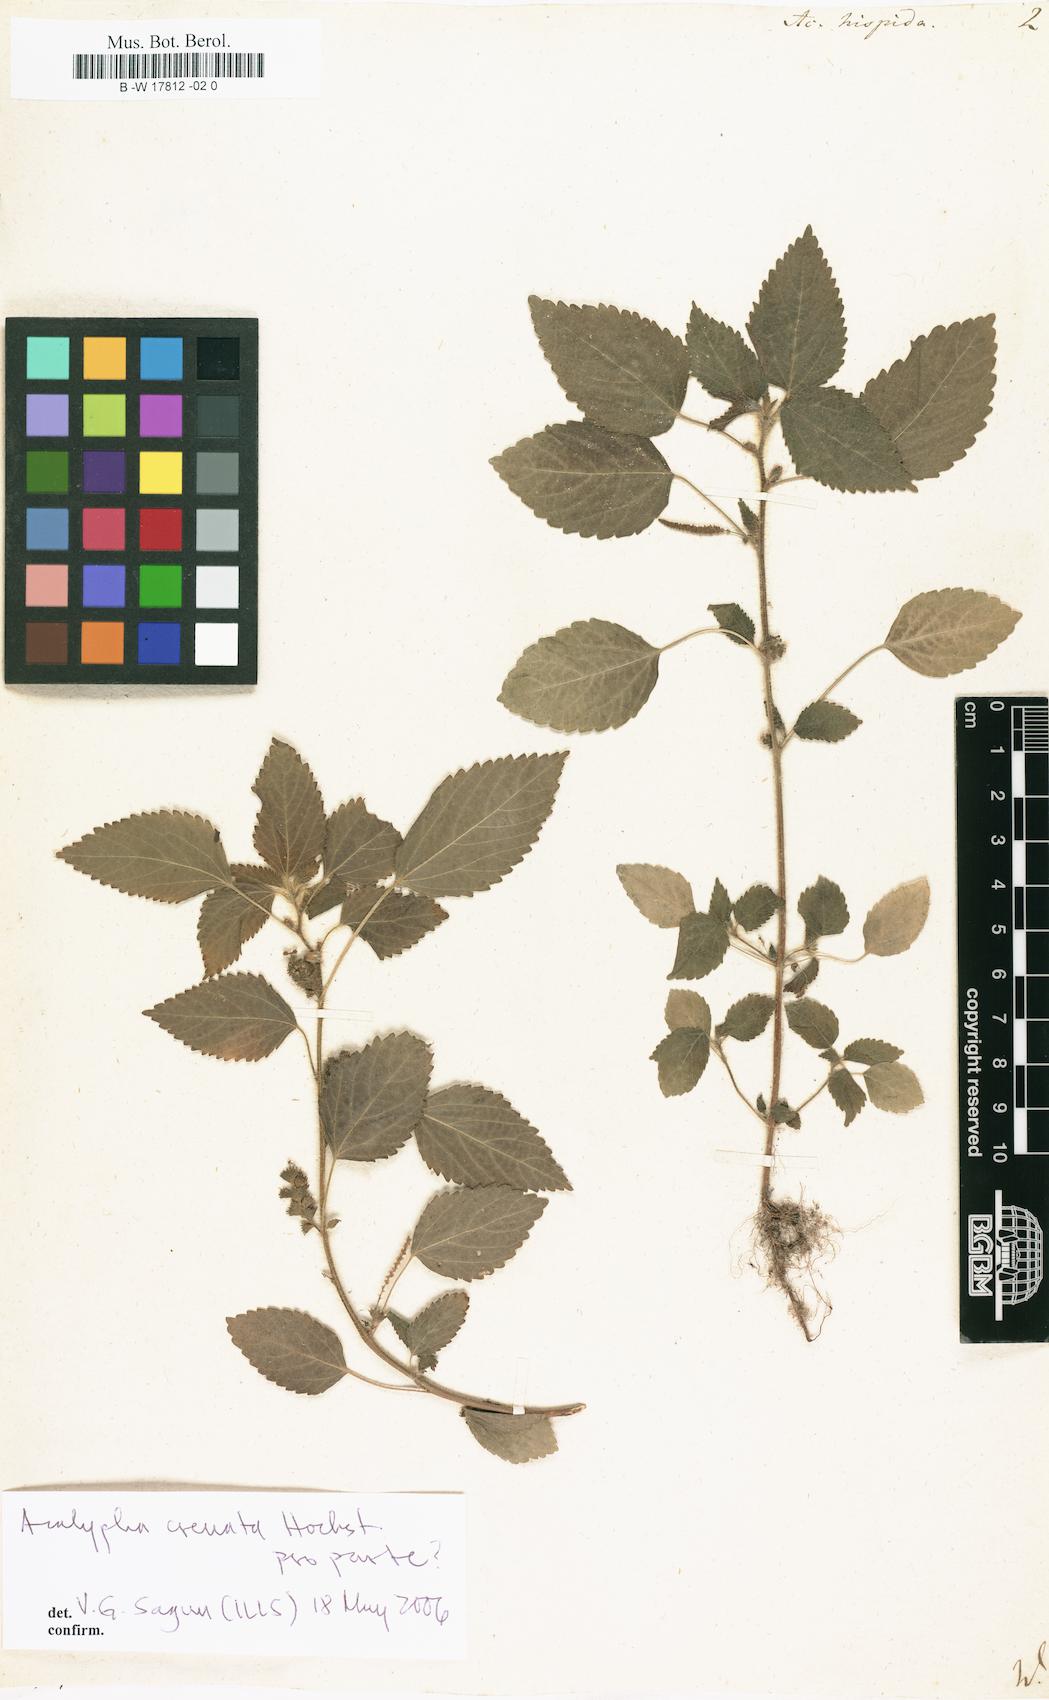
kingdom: Plantae
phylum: Tracheophyta
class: Magnoliopsida
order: Malpighiales
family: Euphorbiaceae
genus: Acalypha
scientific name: Acalypha hispida
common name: Chenilleplant
